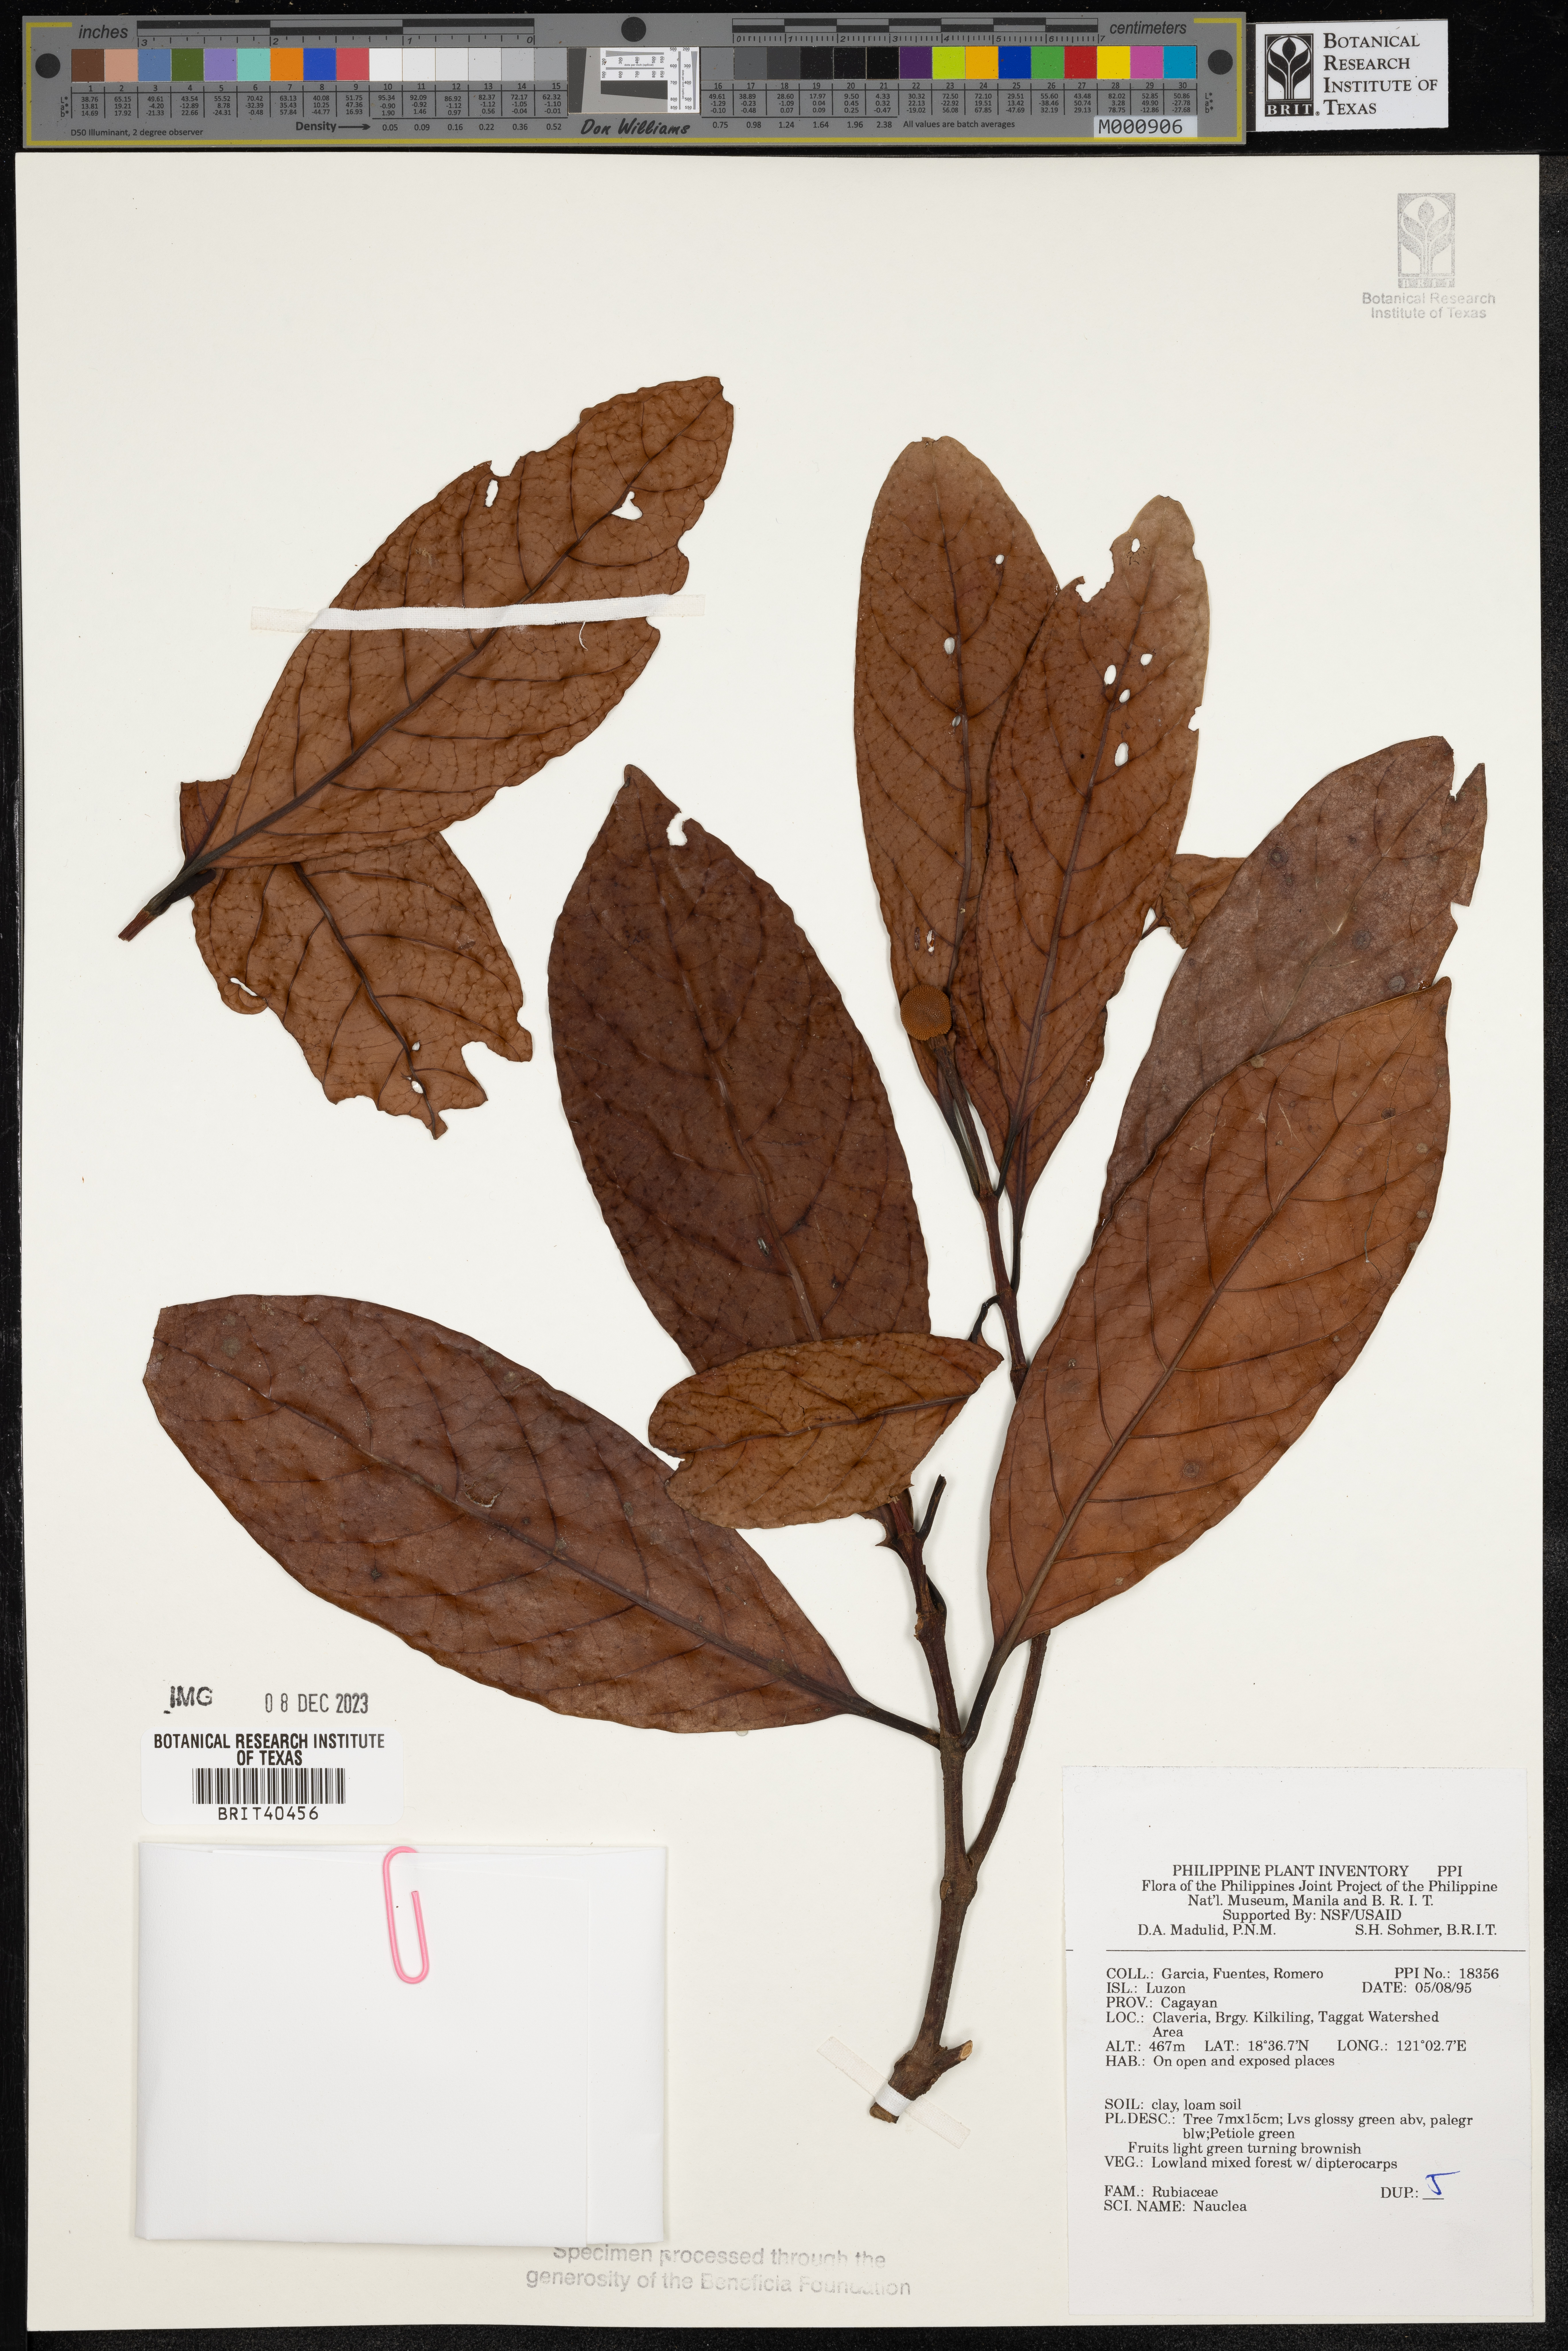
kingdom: Plantae
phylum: Tracheophyta
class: Magnoliopsida
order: Gentianales
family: Rubiaceae
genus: Nauclea
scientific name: Nauclea
